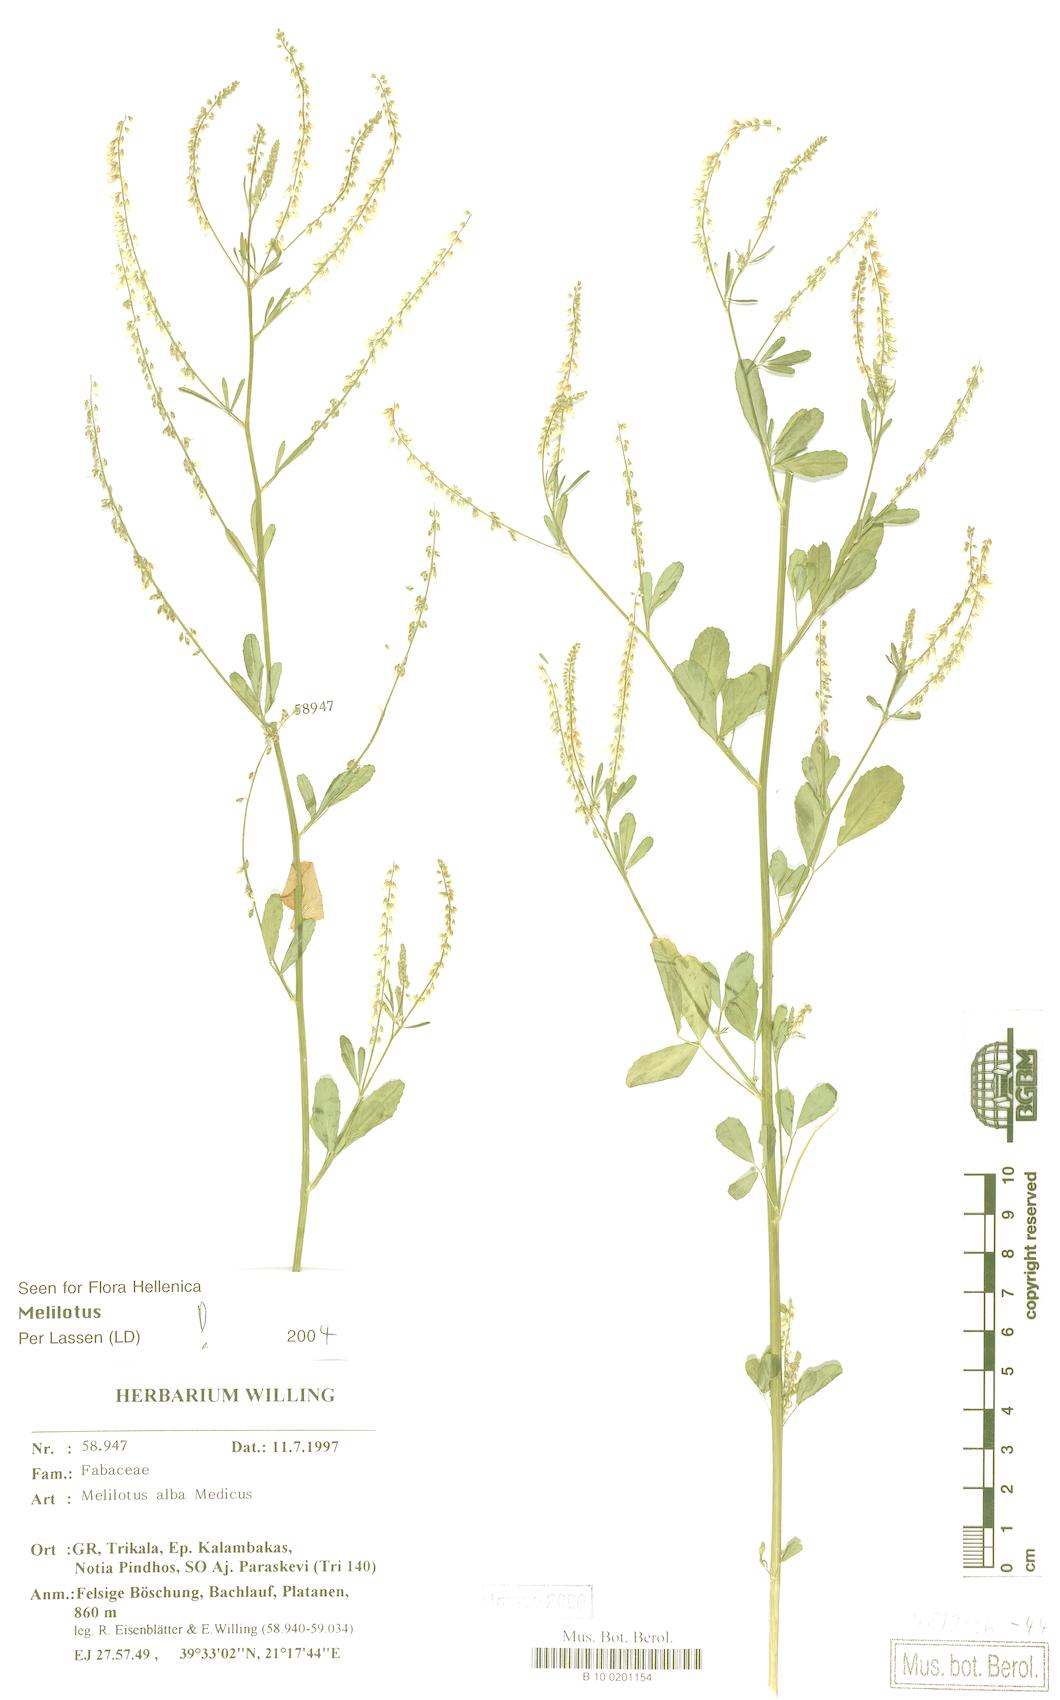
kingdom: Plantae
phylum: Tracheophyta
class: Magnoliopsida
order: Fabales
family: Fabaceae
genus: Melilotus
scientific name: Melilotus albus
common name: White melilot
